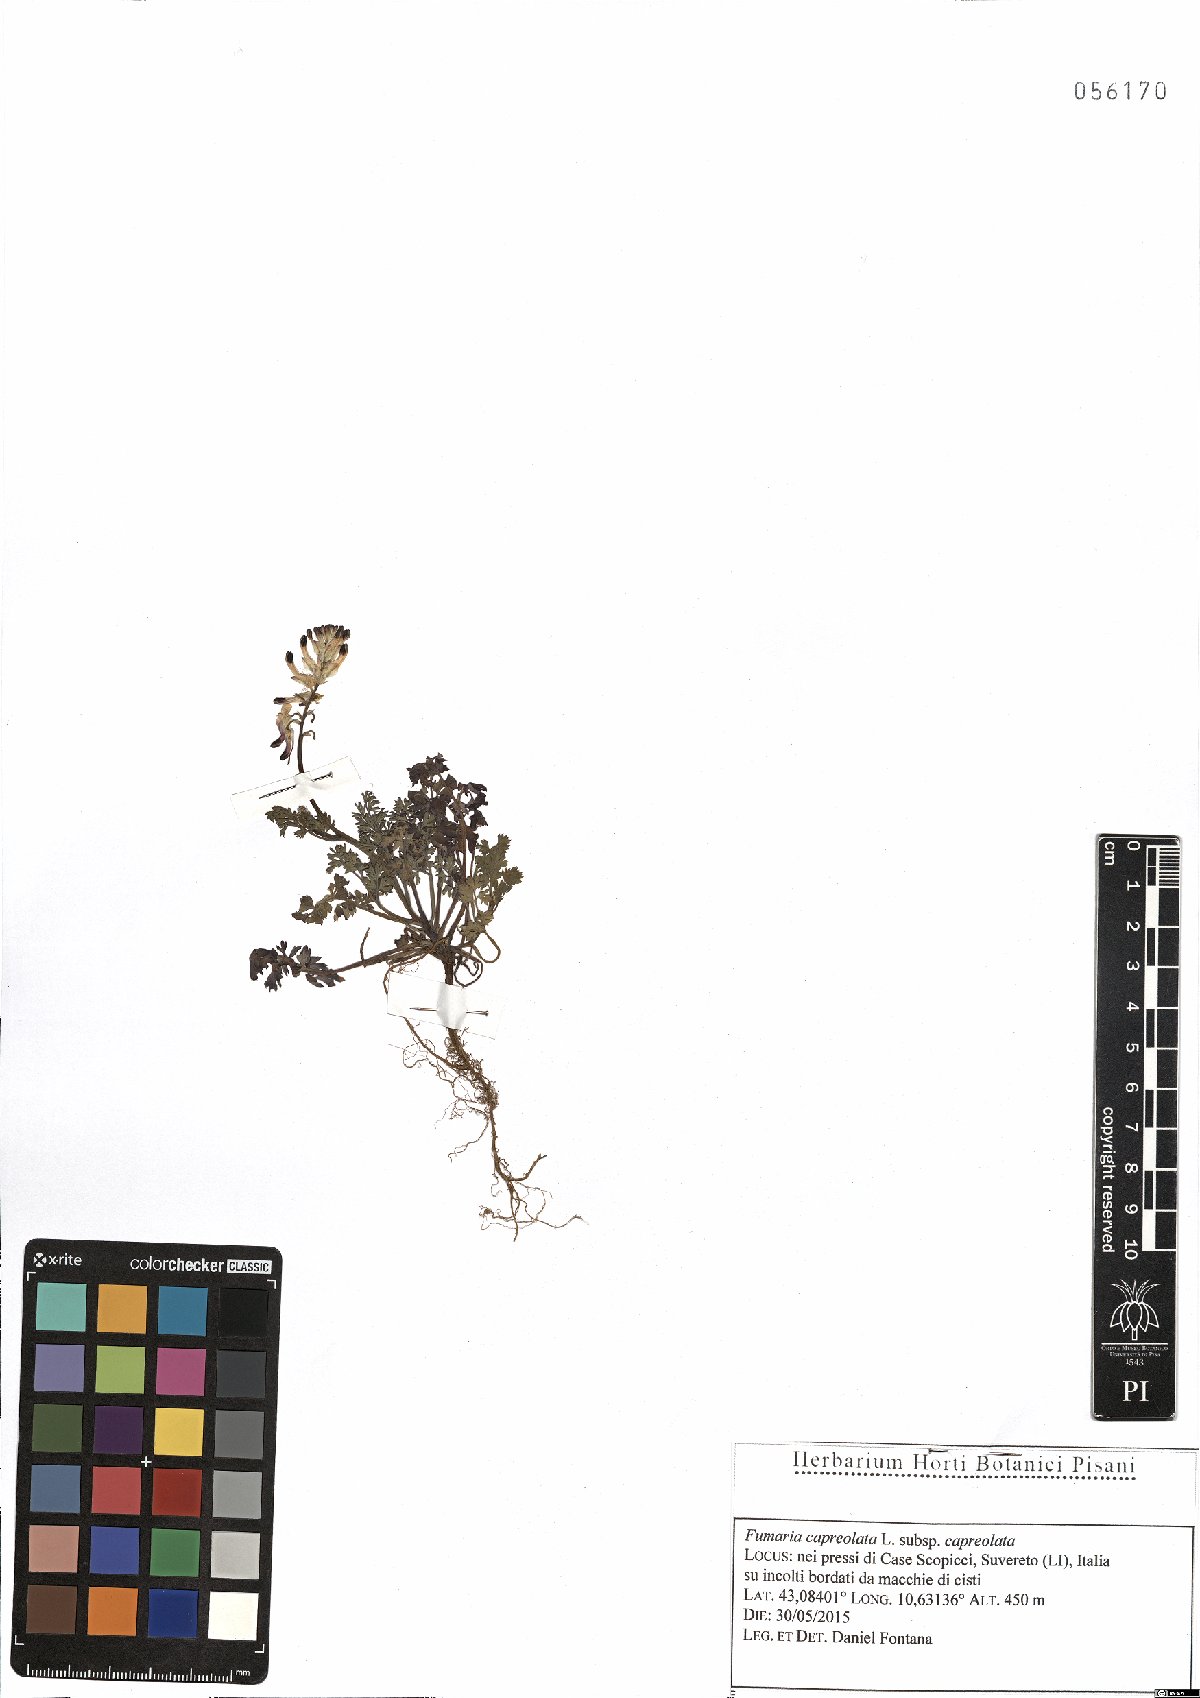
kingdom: Plantae
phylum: Tracheophyta
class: Magnoliopsida
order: Ranunculales
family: Papaveraceae
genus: Fumaria
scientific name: Fumaria capreolata
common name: White ramping-fumitory
